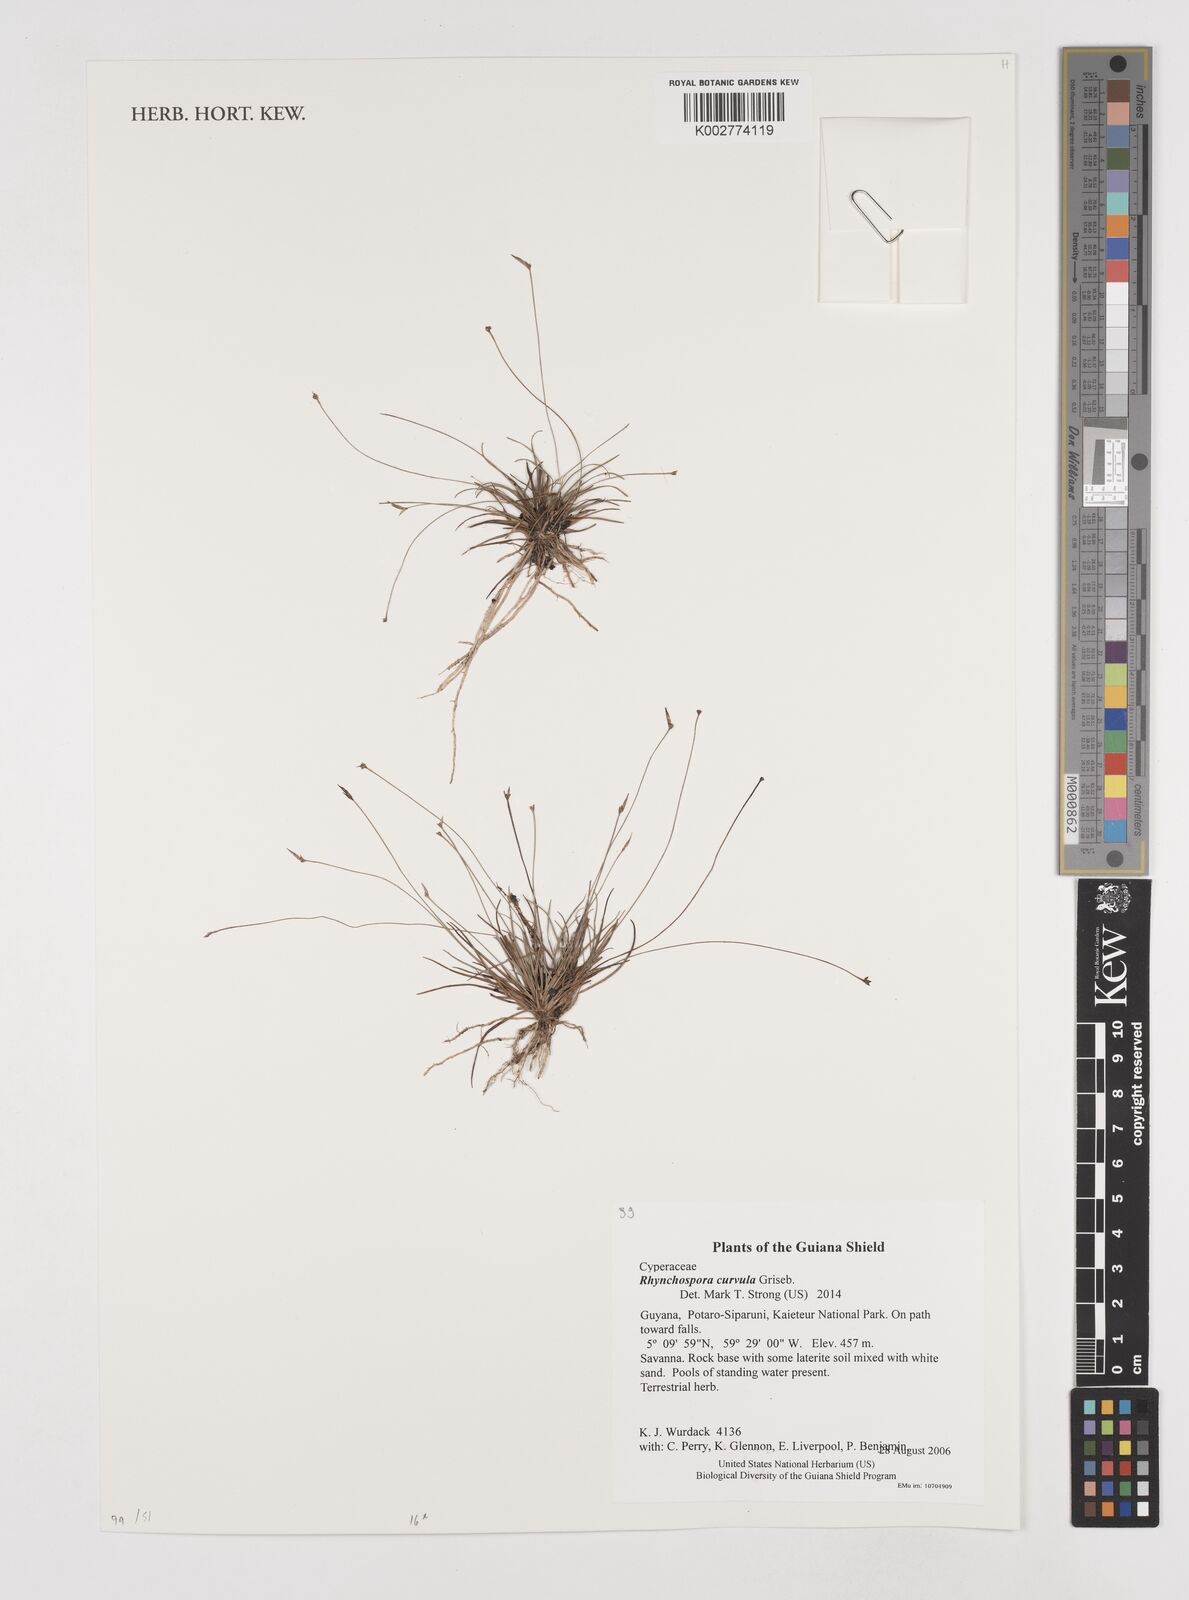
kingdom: Plantae
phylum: Tracheophyta
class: Liliopsida
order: Poales
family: Cyperaceae
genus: Rhynchospora
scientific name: Rhynchospora curvula
